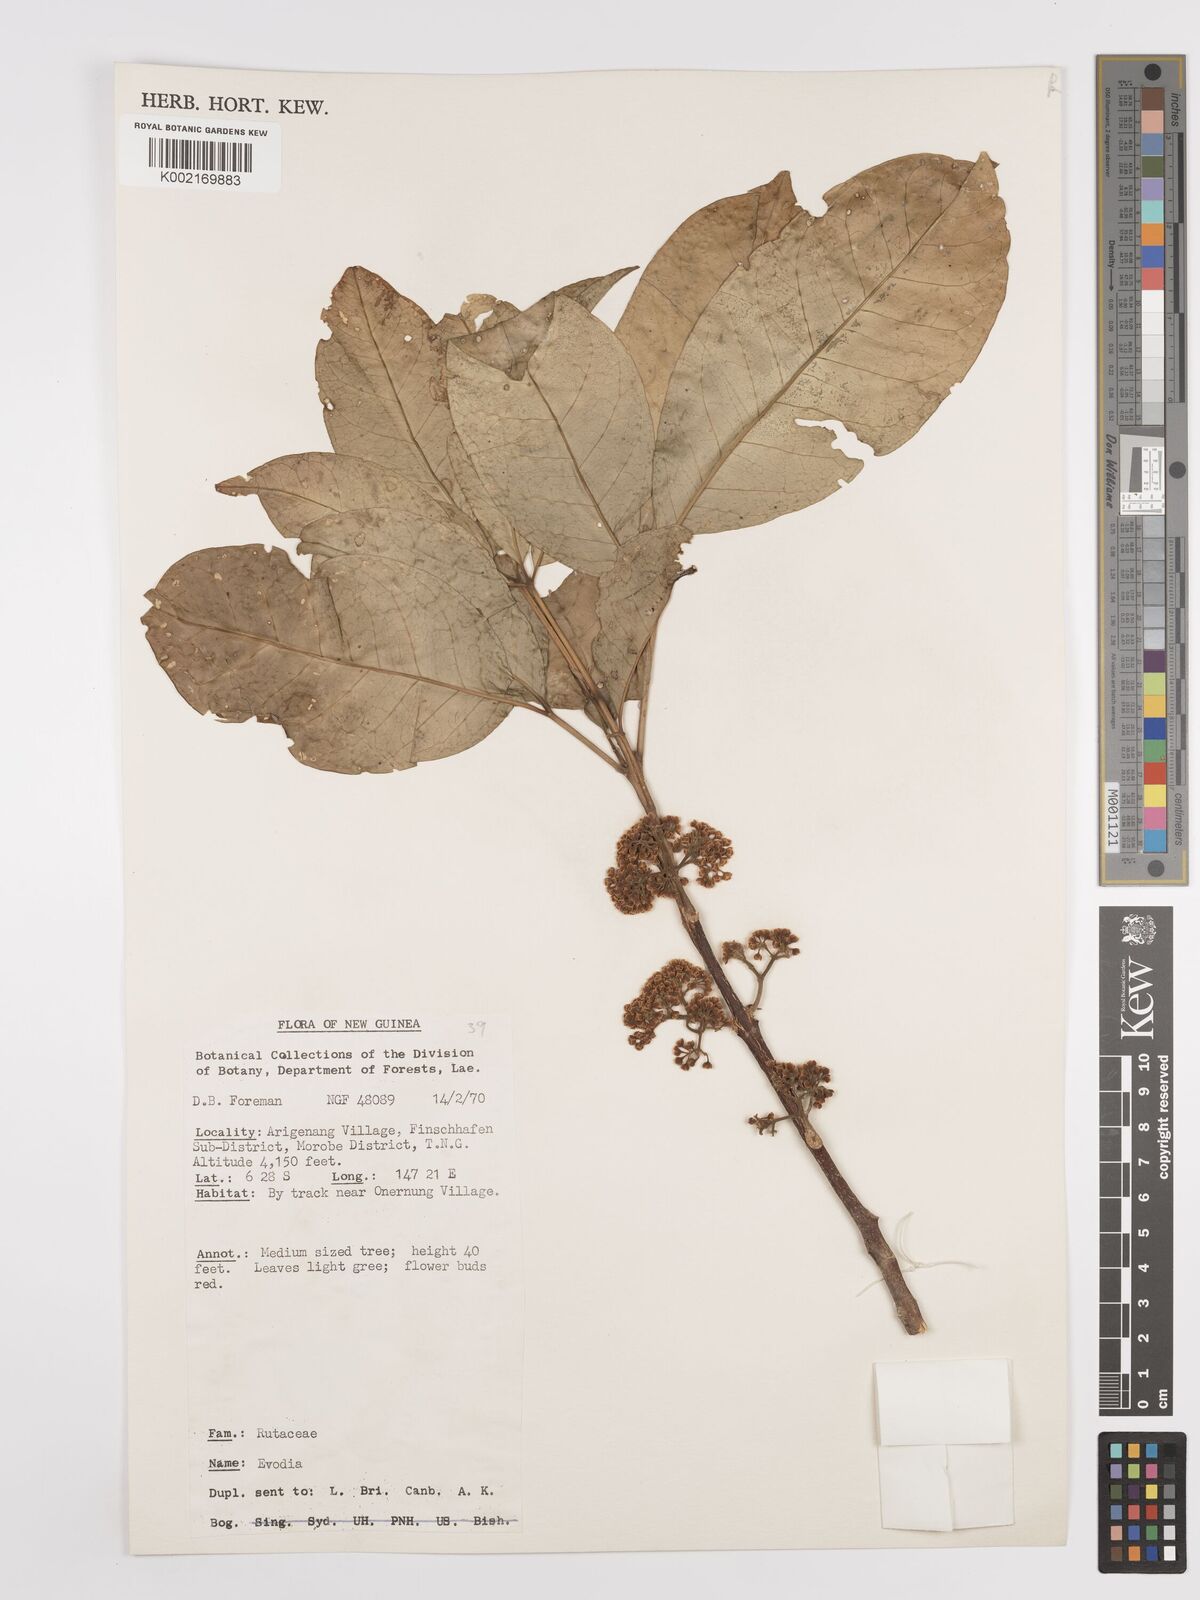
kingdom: Plantae
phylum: Tracheophyta
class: Magnoliopsida
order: Sapindales
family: Rutaceae
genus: Euodia
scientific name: Euodia
